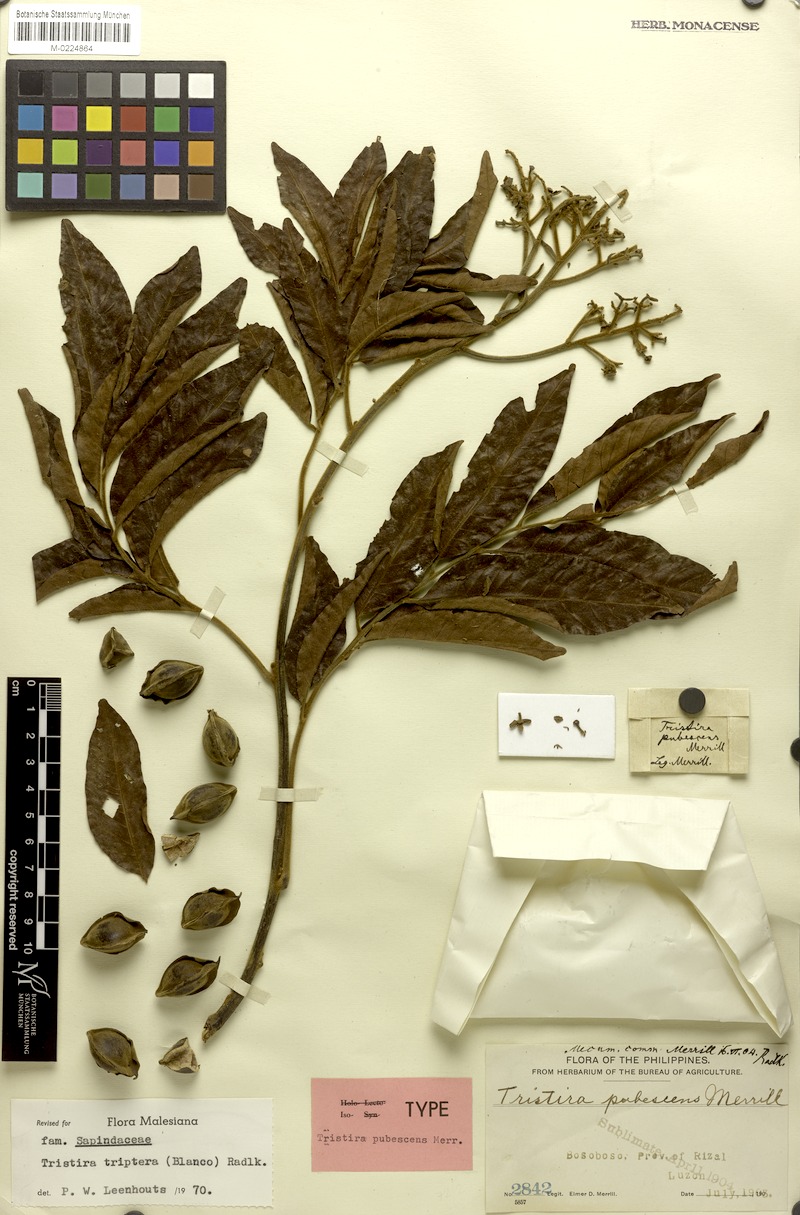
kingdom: Plantae
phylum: Tracheophyta
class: Magnoliopsida
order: Sapindales
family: Sapindaceae
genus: Tristira
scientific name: Tristira triptera
